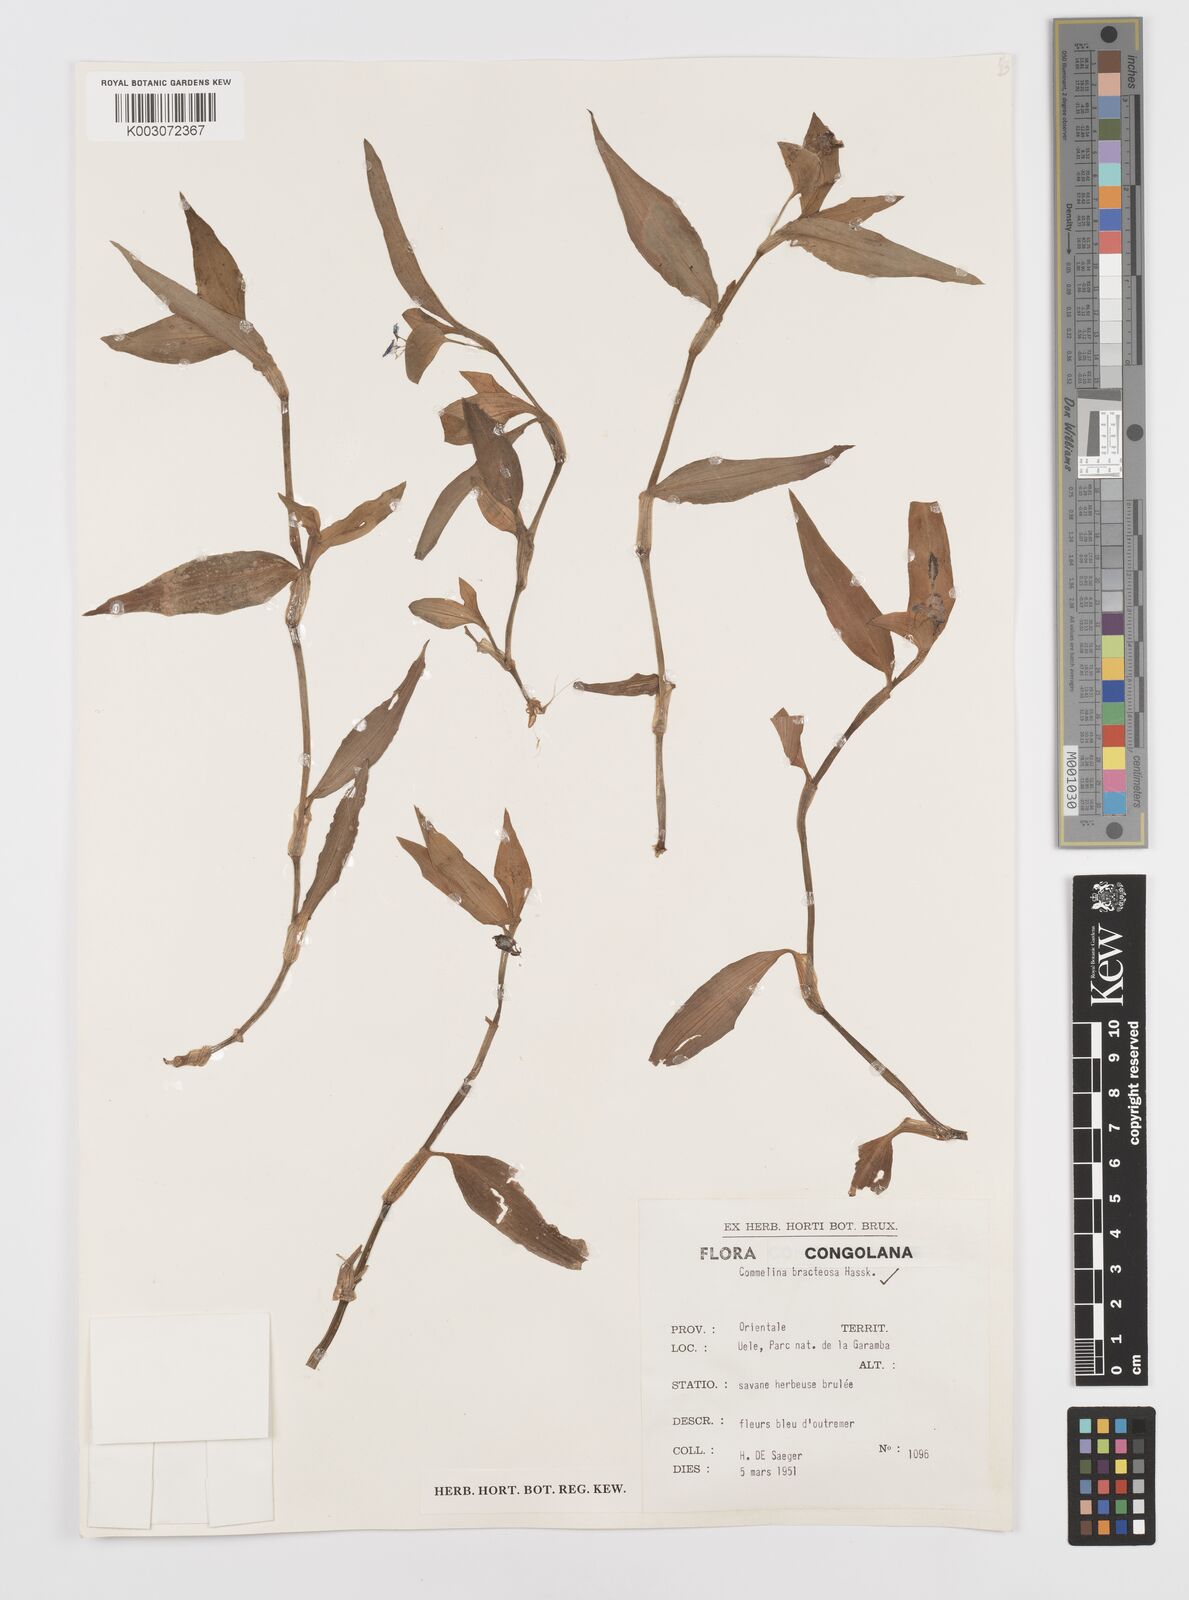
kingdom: Plantae
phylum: Tracheophyta
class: Liliopsida
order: Commelinales
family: Commelinaceae
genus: Commelina
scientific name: Commelina bracteosa
